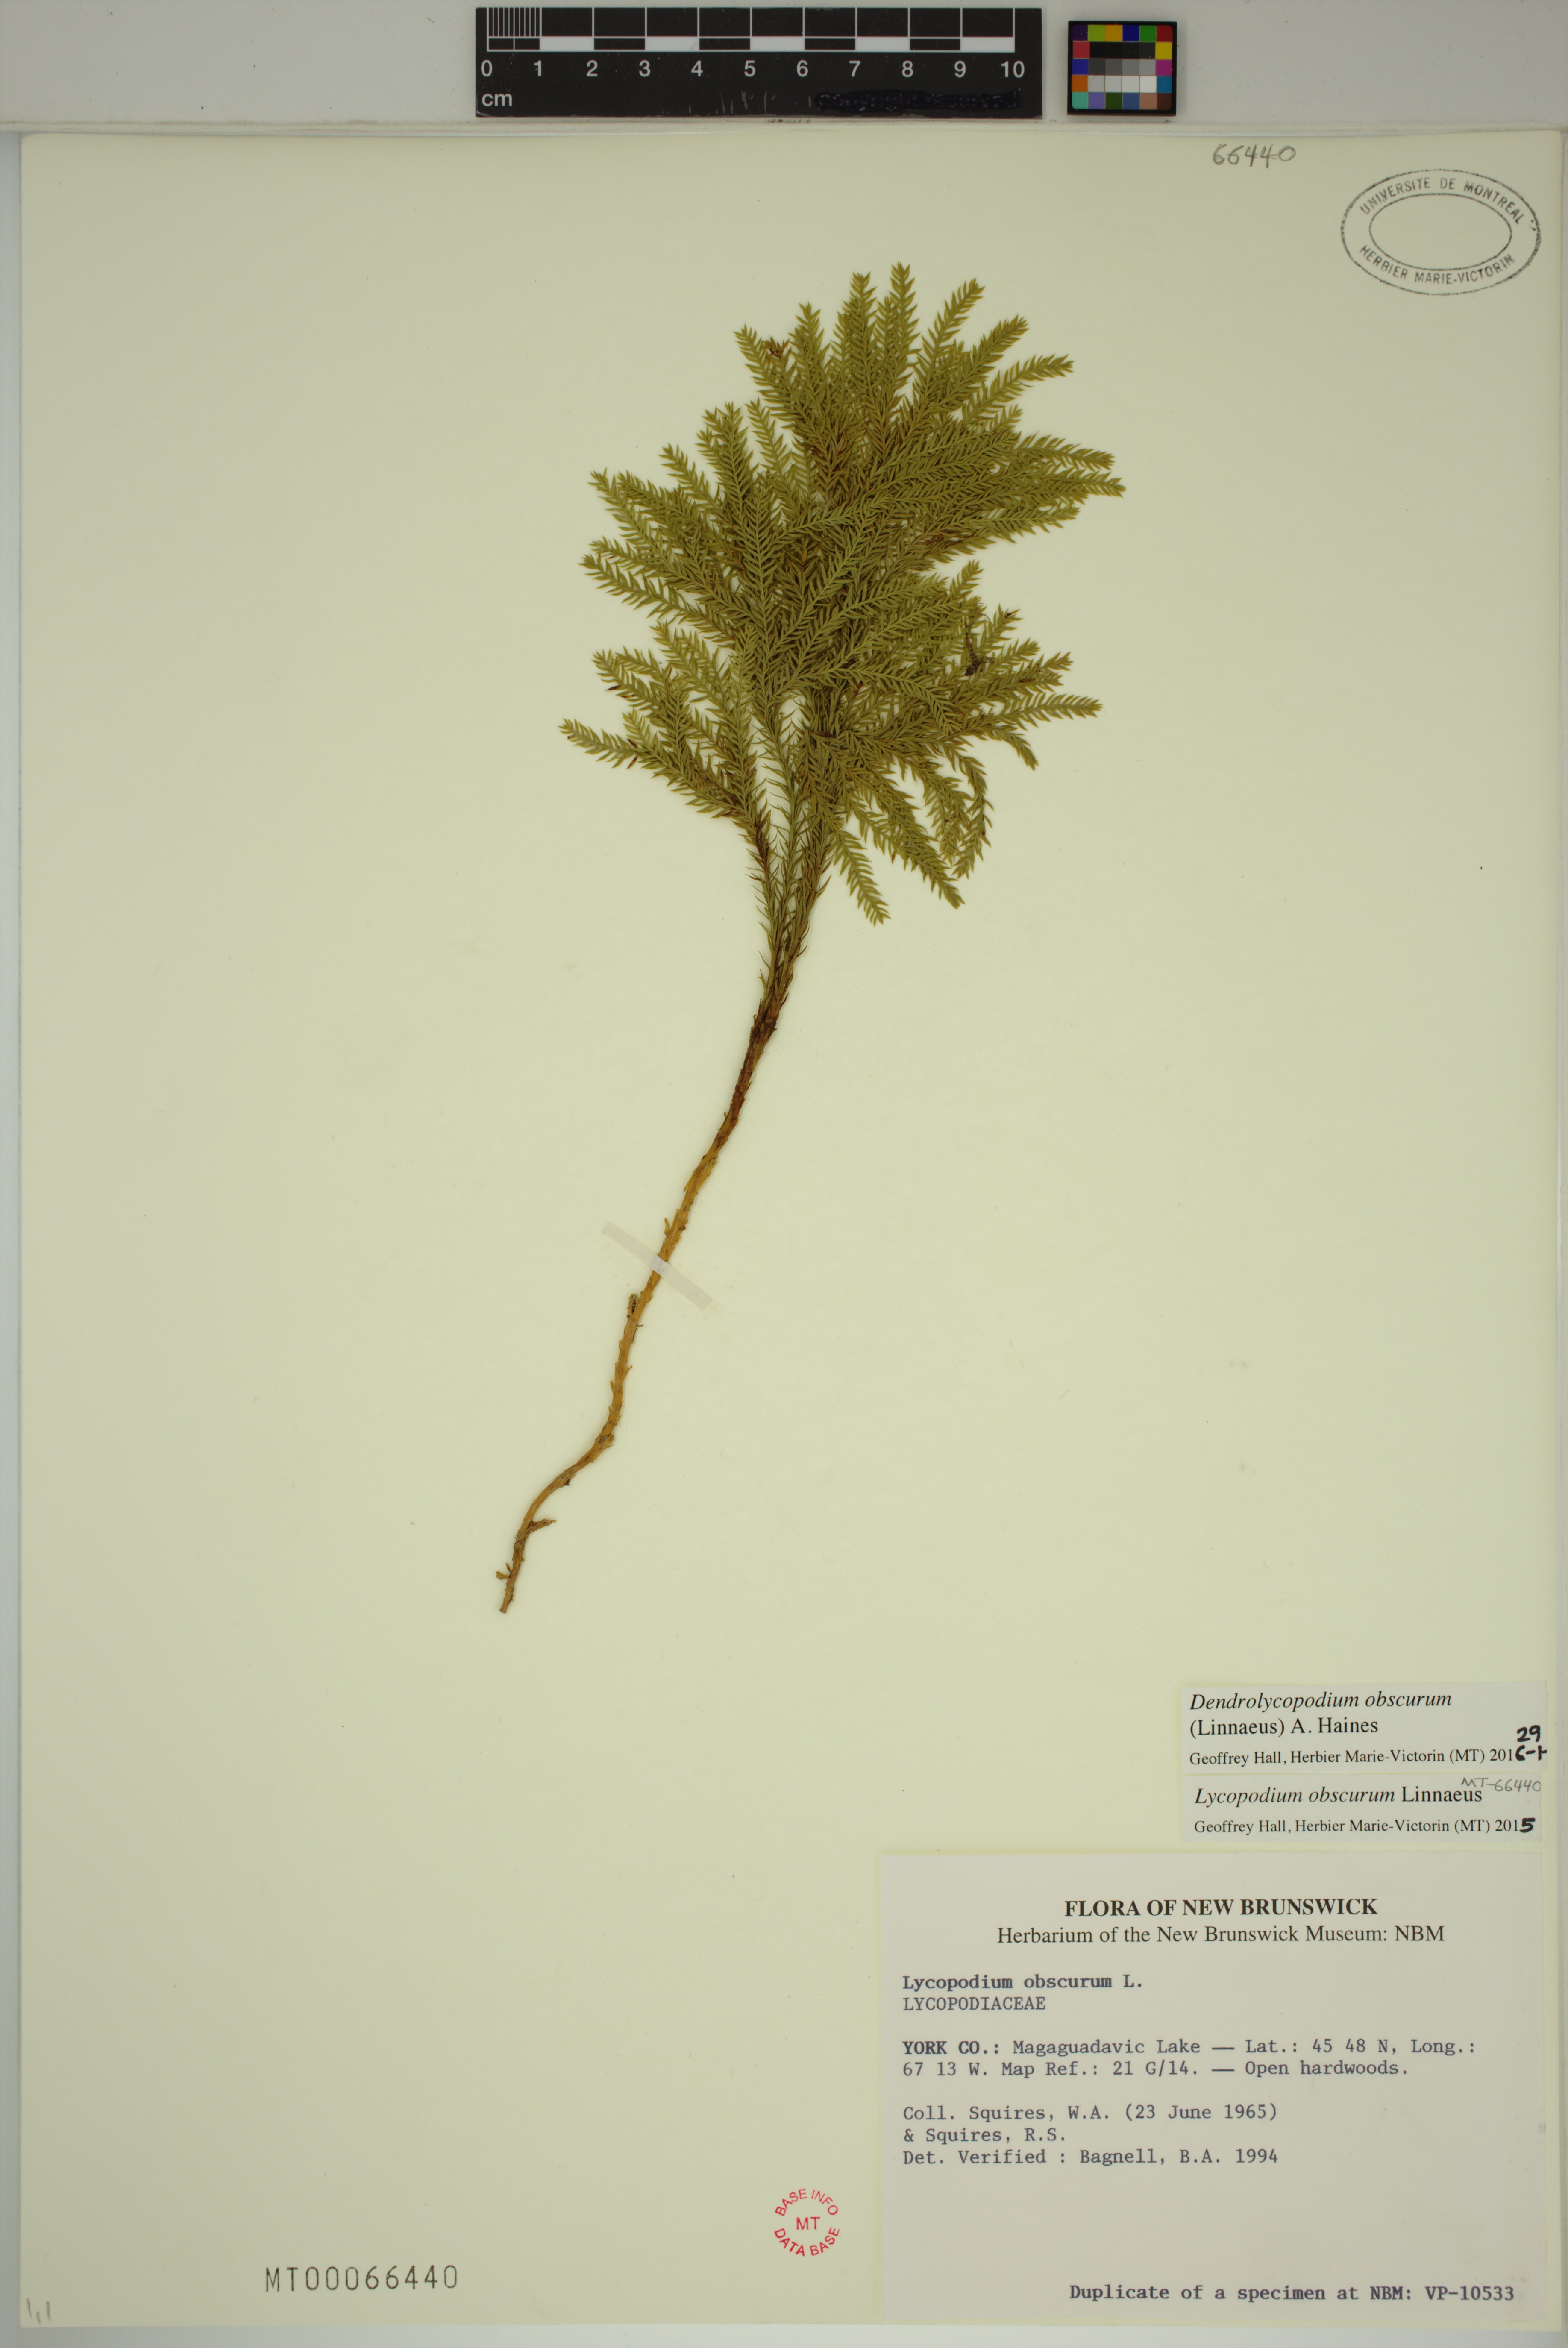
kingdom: Plantae
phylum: Tracheophyta
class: Lycopodiopsida
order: Lycopodiales
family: Lycopodiaceae
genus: Dendrolycopodium
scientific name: Dendrolycopodium obscurum
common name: Common ground-pine
